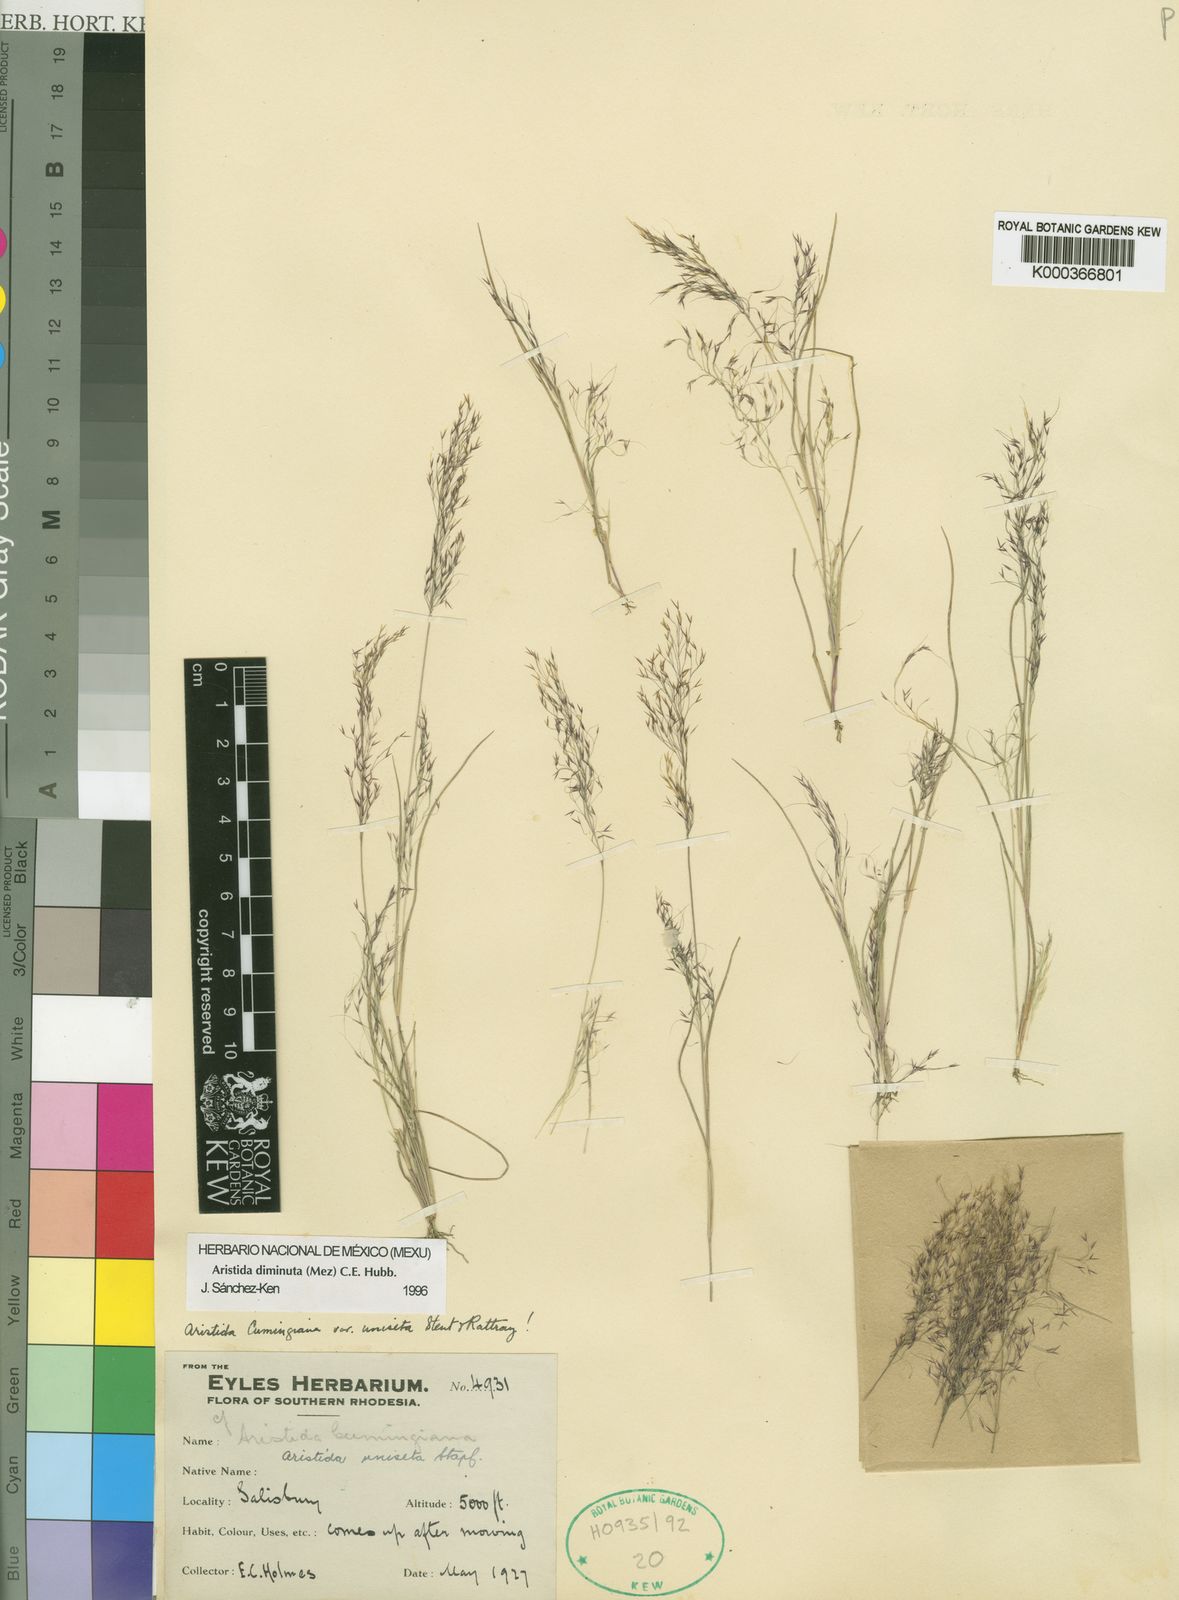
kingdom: Plantae
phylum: Tracheophyta
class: Liliopsida
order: Poales
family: Poaceae
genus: Aristida
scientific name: Aristida diminuta
